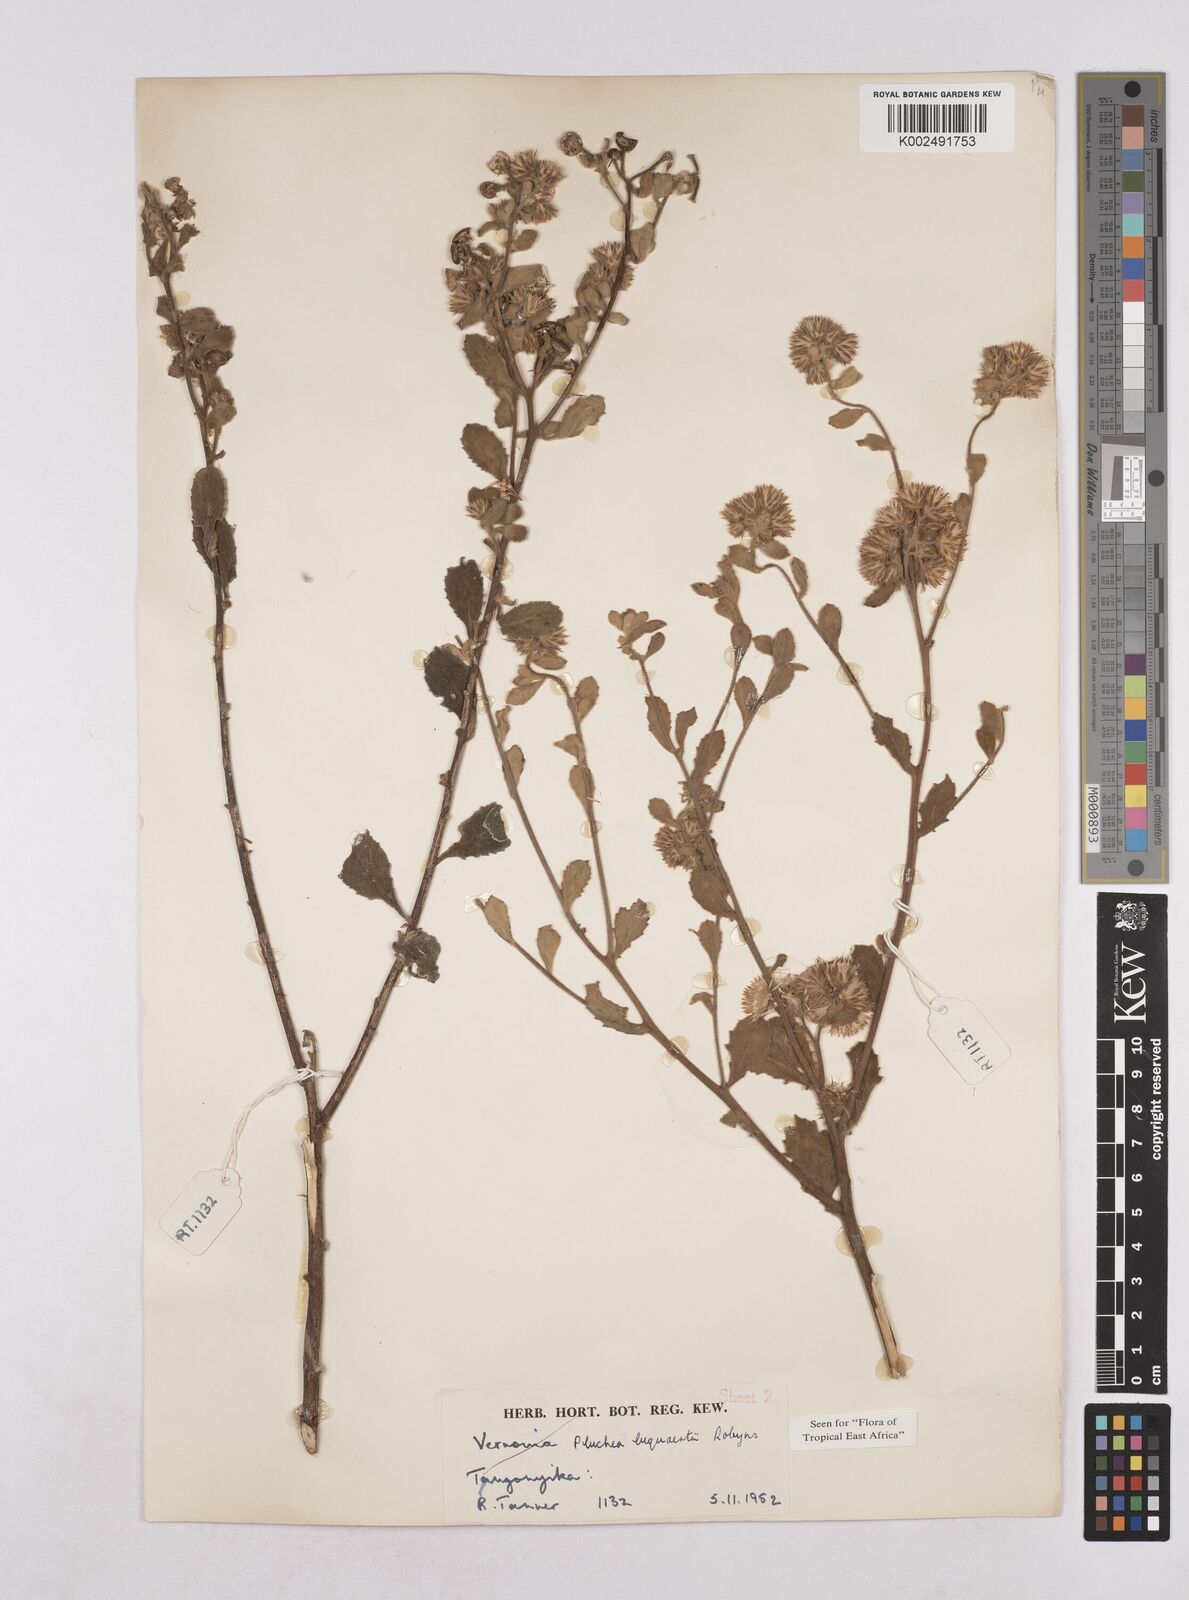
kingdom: Plantae
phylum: Tracheophyta
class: Magnoliopsida
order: Asterales
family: Asteraceae
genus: Pluchea
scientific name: Pluchea sordida
